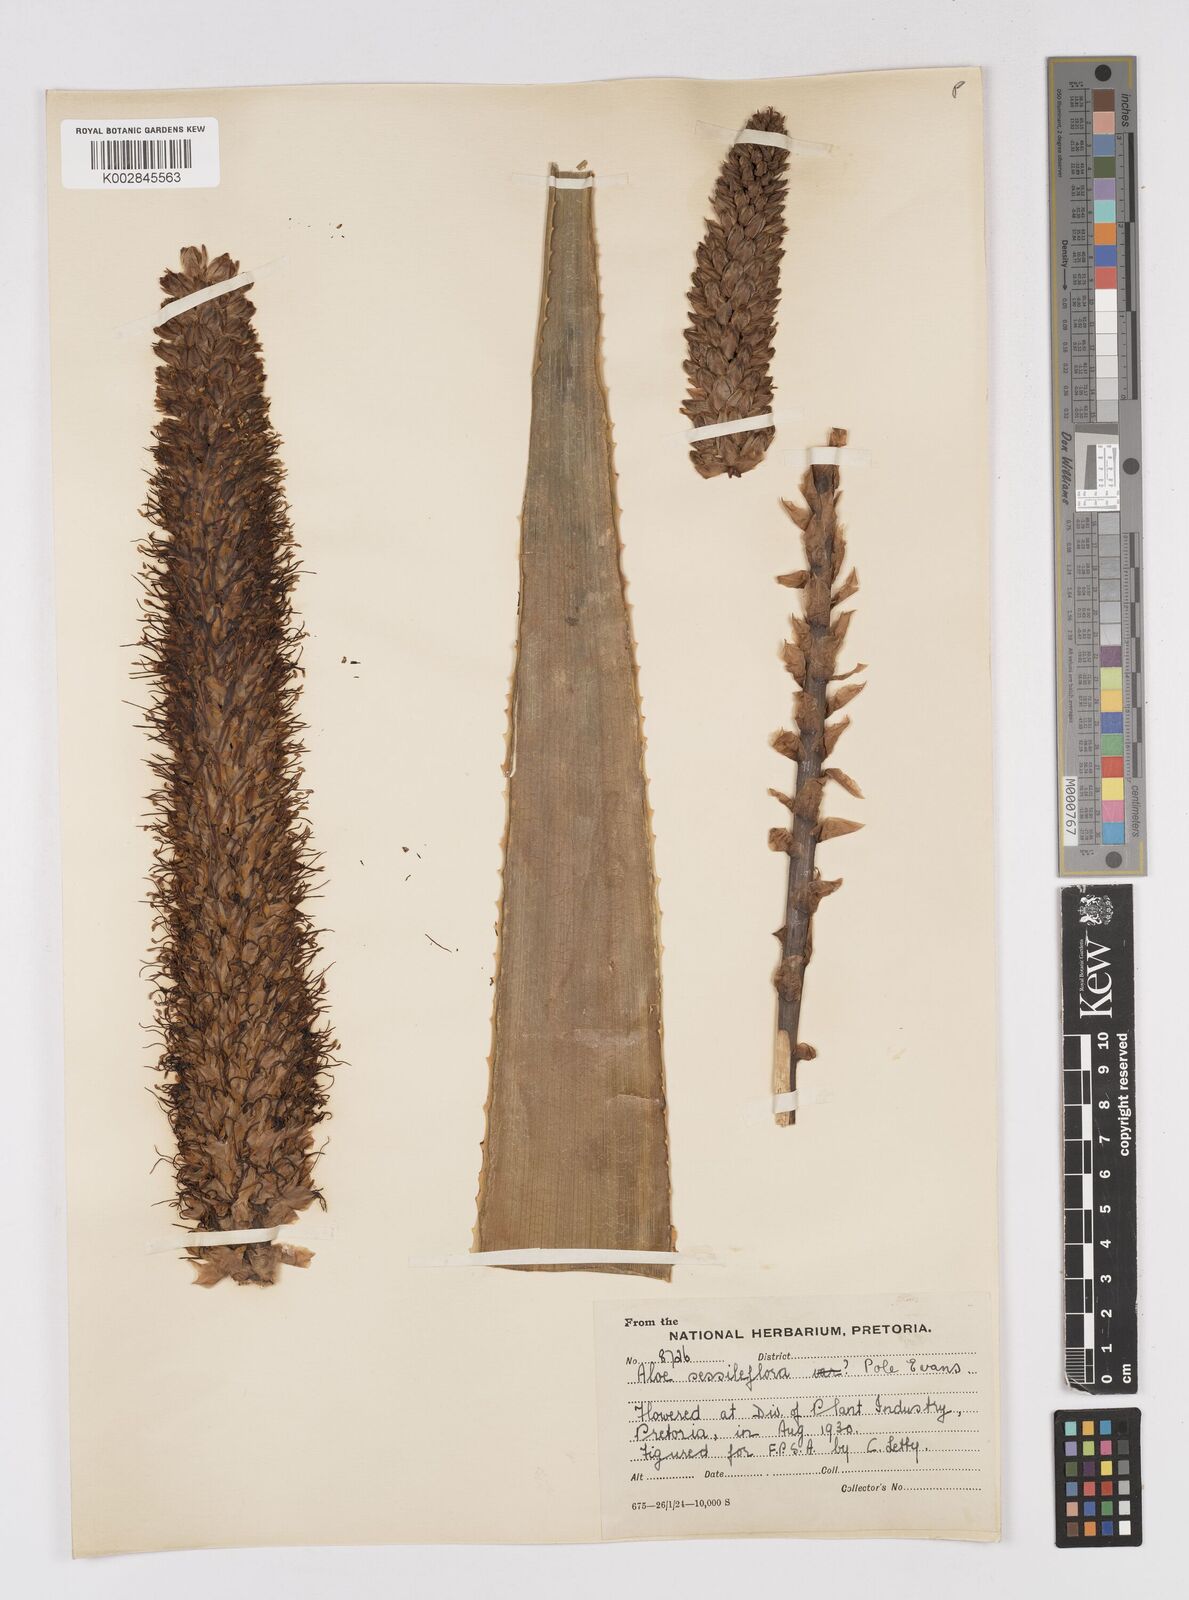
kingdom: Plantae
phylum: Tracheophyta
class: Liliopsida
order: Asparagales
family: Asphodelaceae
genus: Aloe
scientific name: Aloe spicata
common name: Gazaland aloe
